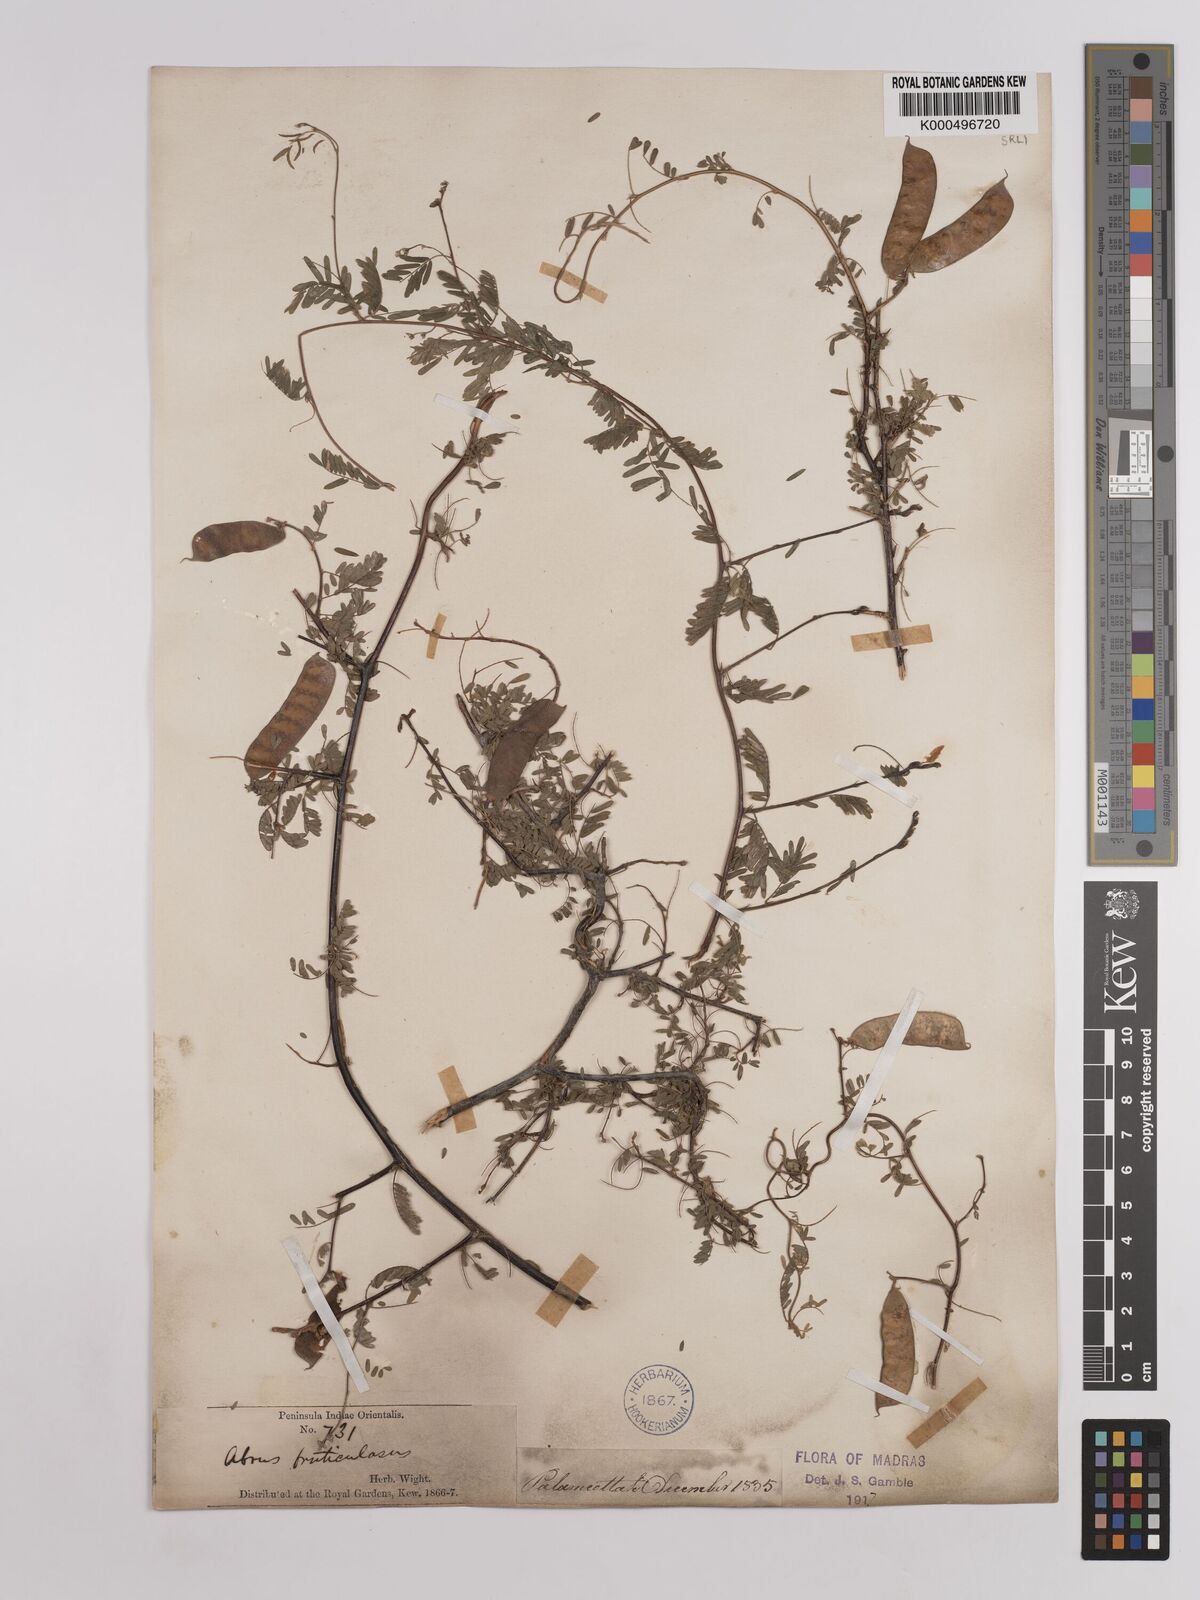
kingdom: Plantae
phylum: Tracheophyta
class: Magnoliopsida
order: Fabales
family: Fabaceae
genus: Abrus
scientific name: Abrus fruticulosus
